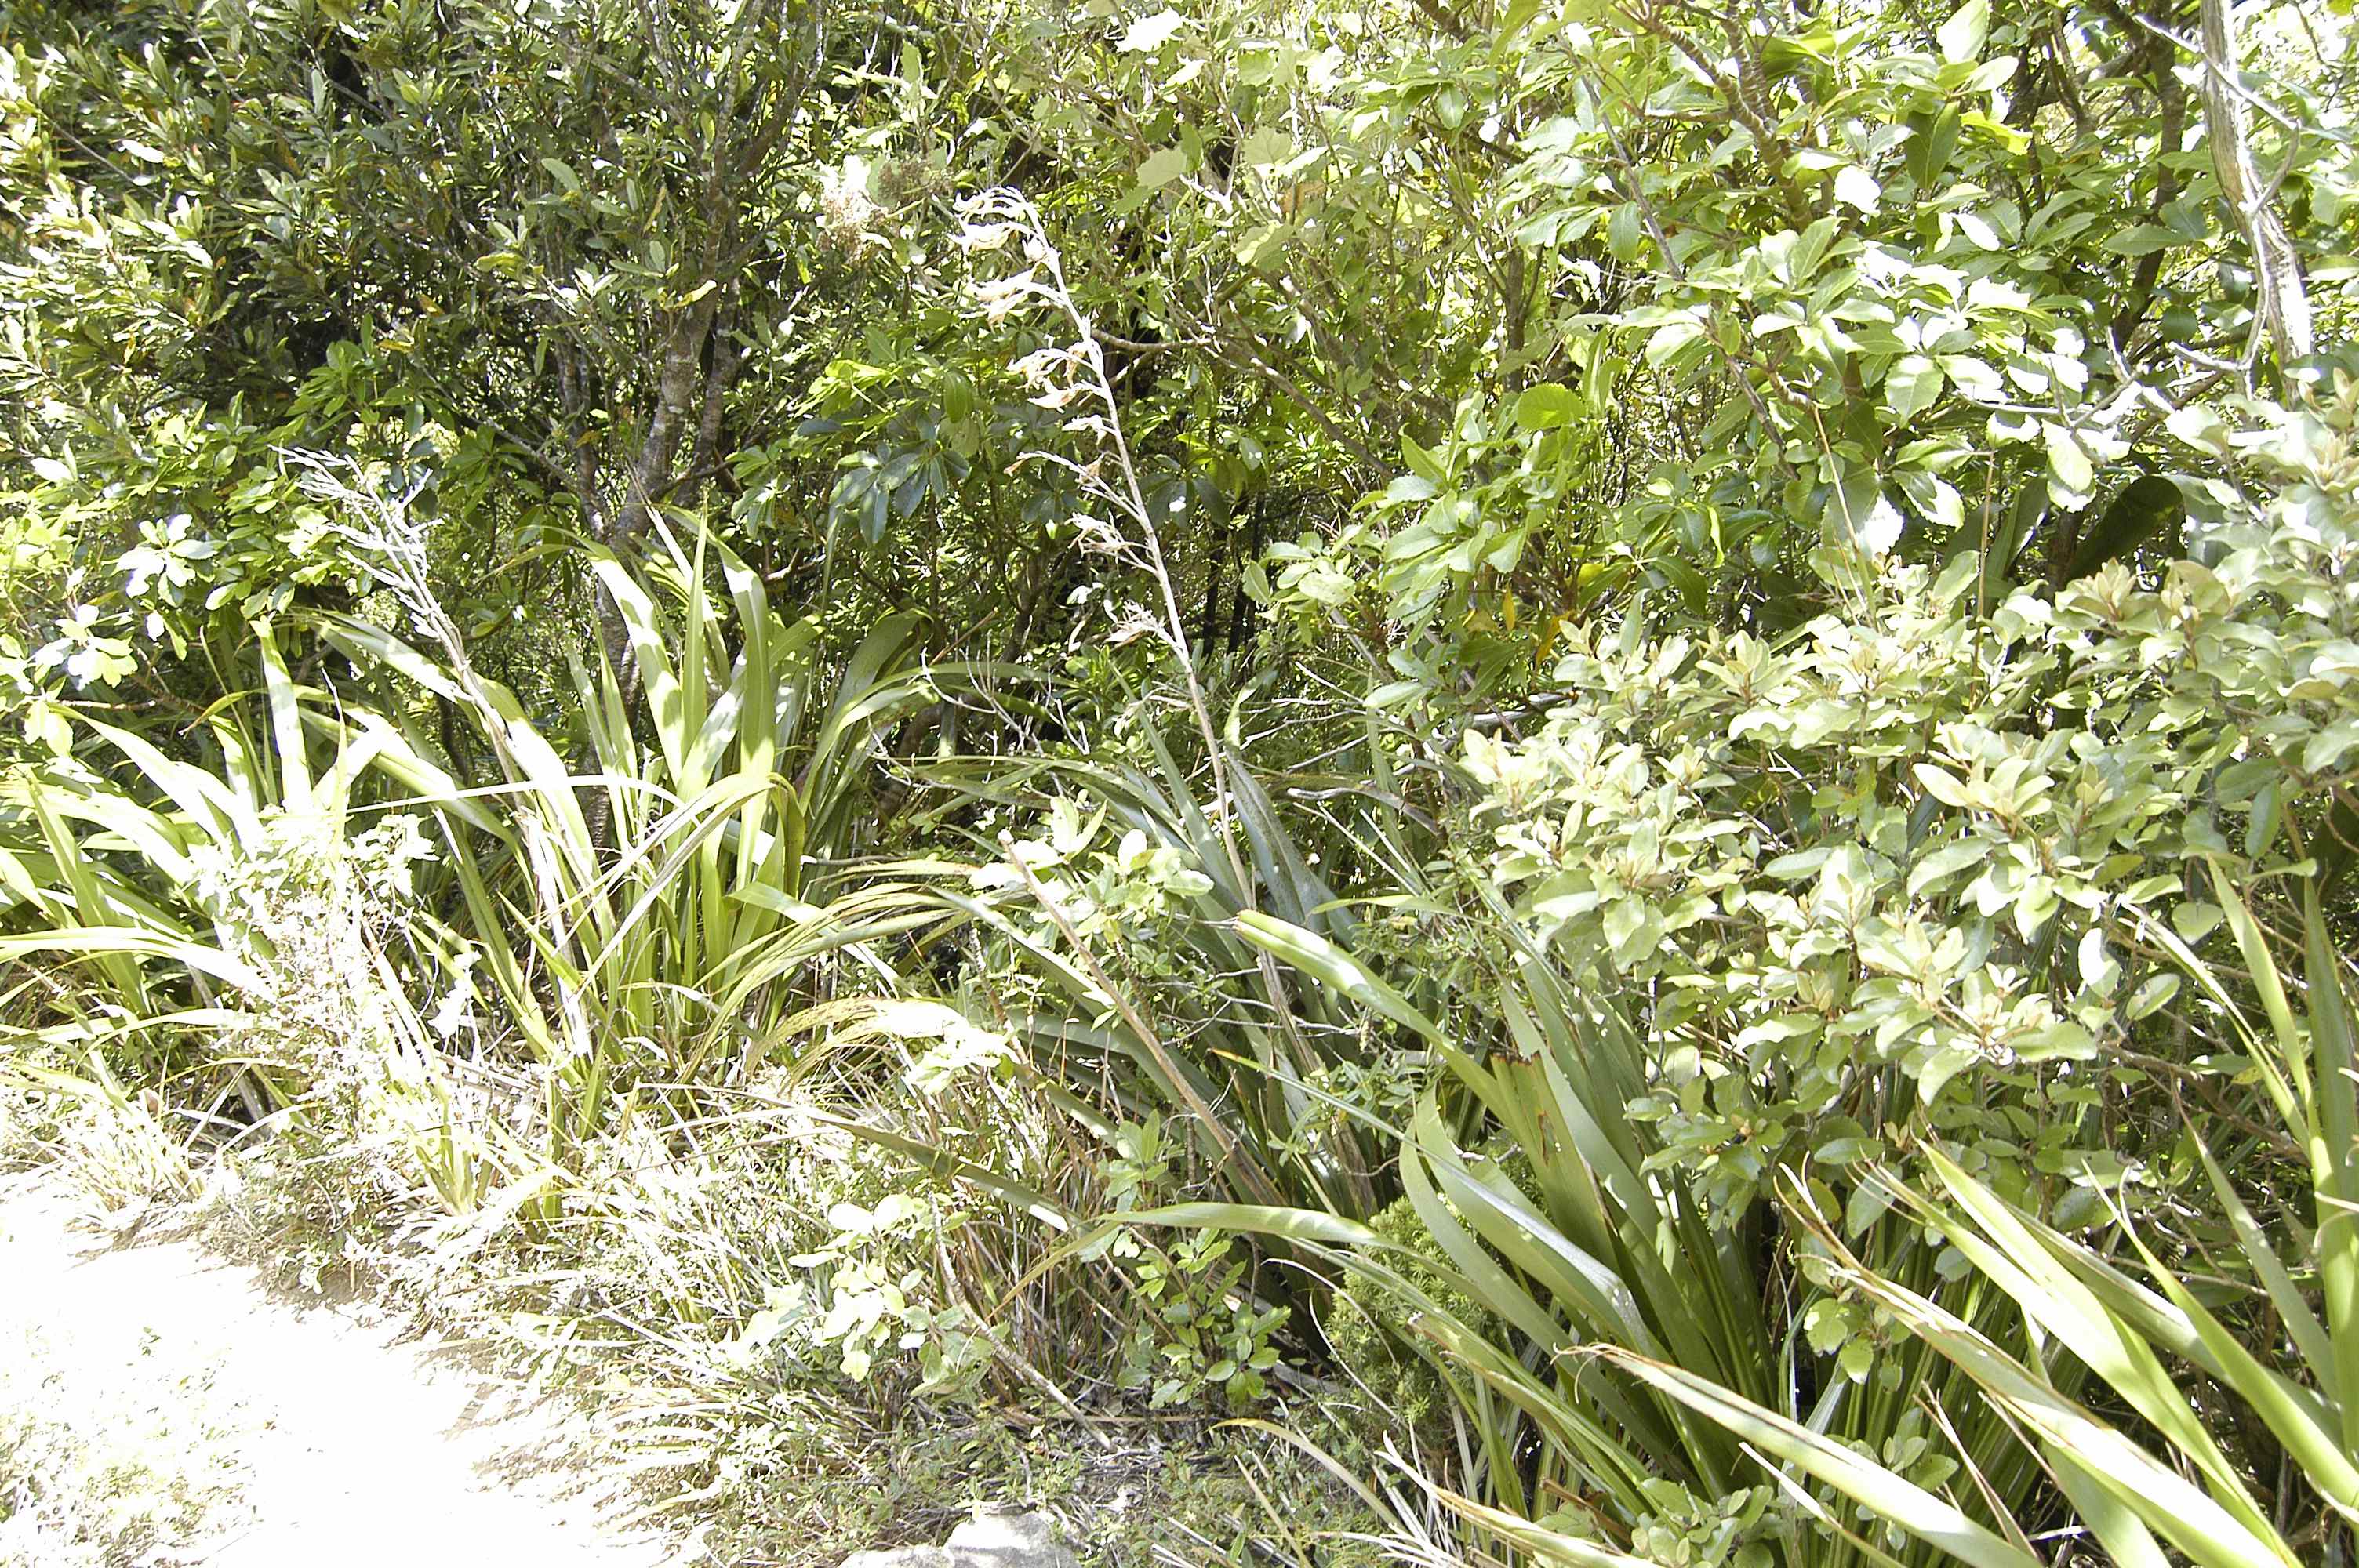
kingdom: Plantae
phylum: Tracheophyta
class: Liliopsida
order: Asparagales
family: Asphodelaceae
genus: Phormium
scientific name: Phormium colensoi
